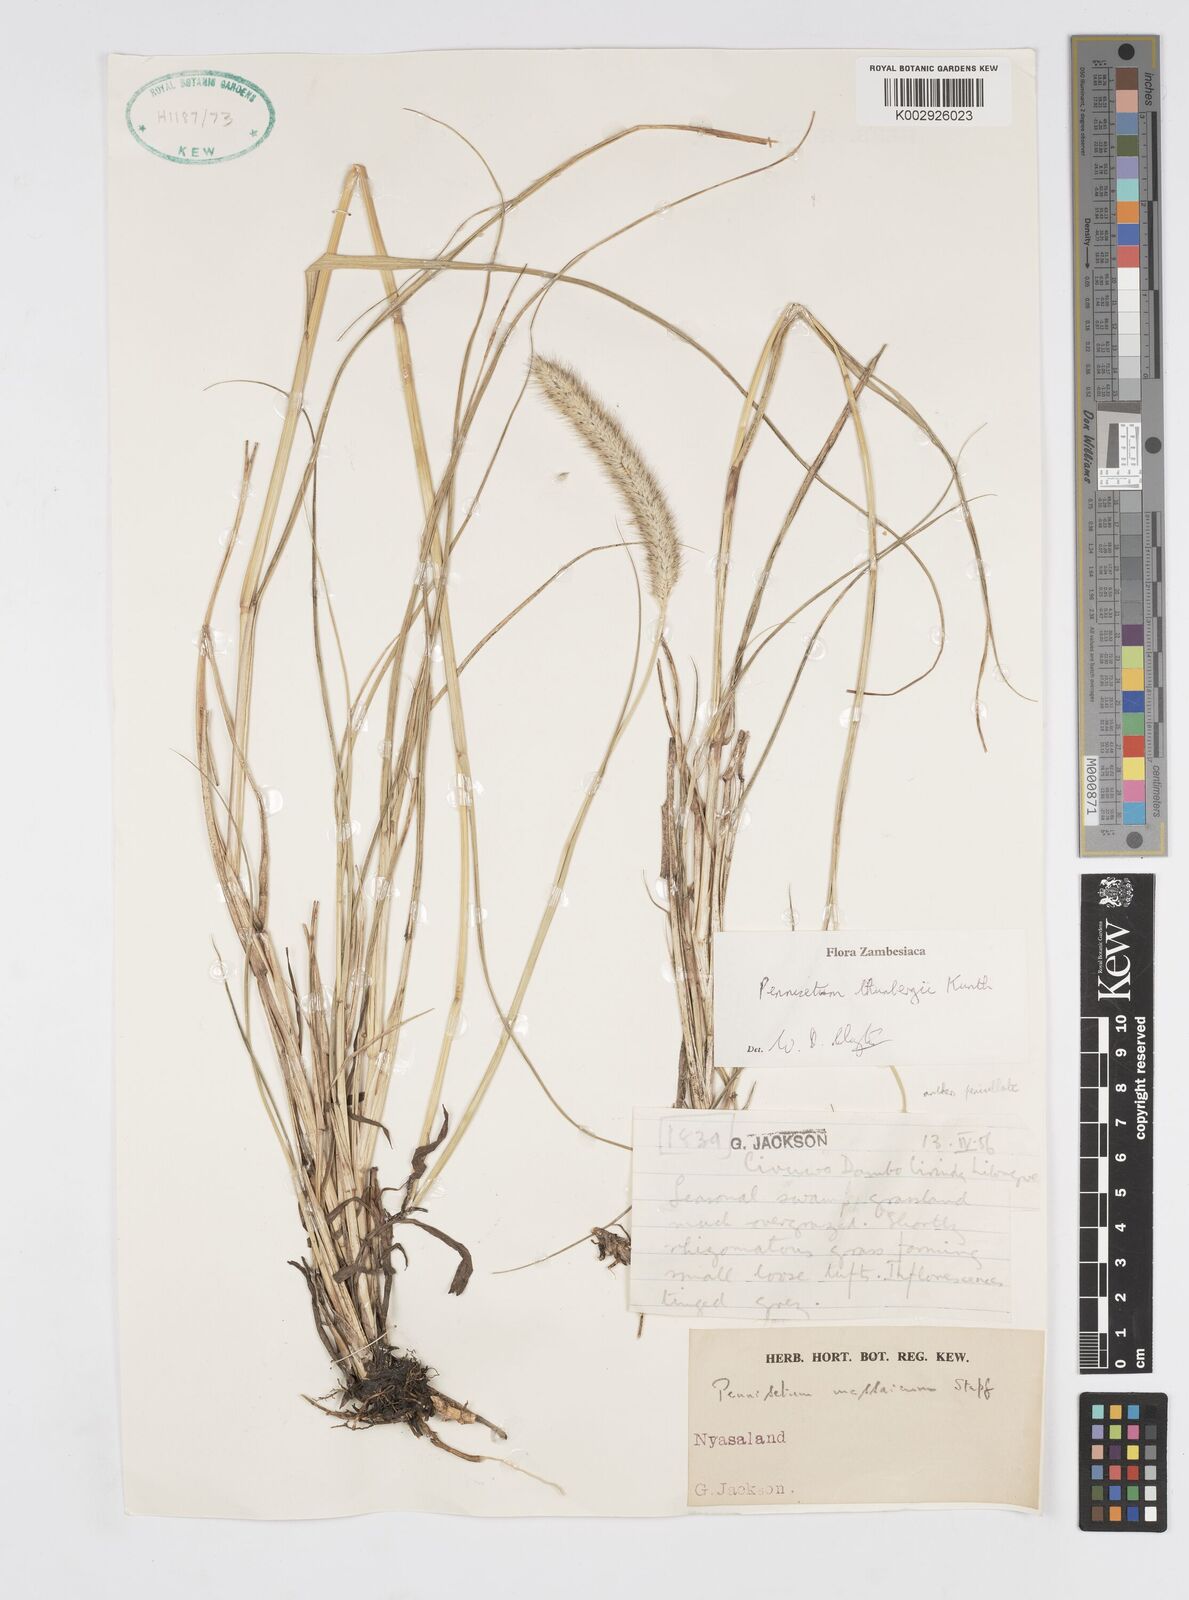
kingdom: Plantae
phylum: Tracheophyta
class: Liliopsida
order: Poales
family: Poaceae
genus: Cenchrus
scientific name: Cenchrus geniculatus
